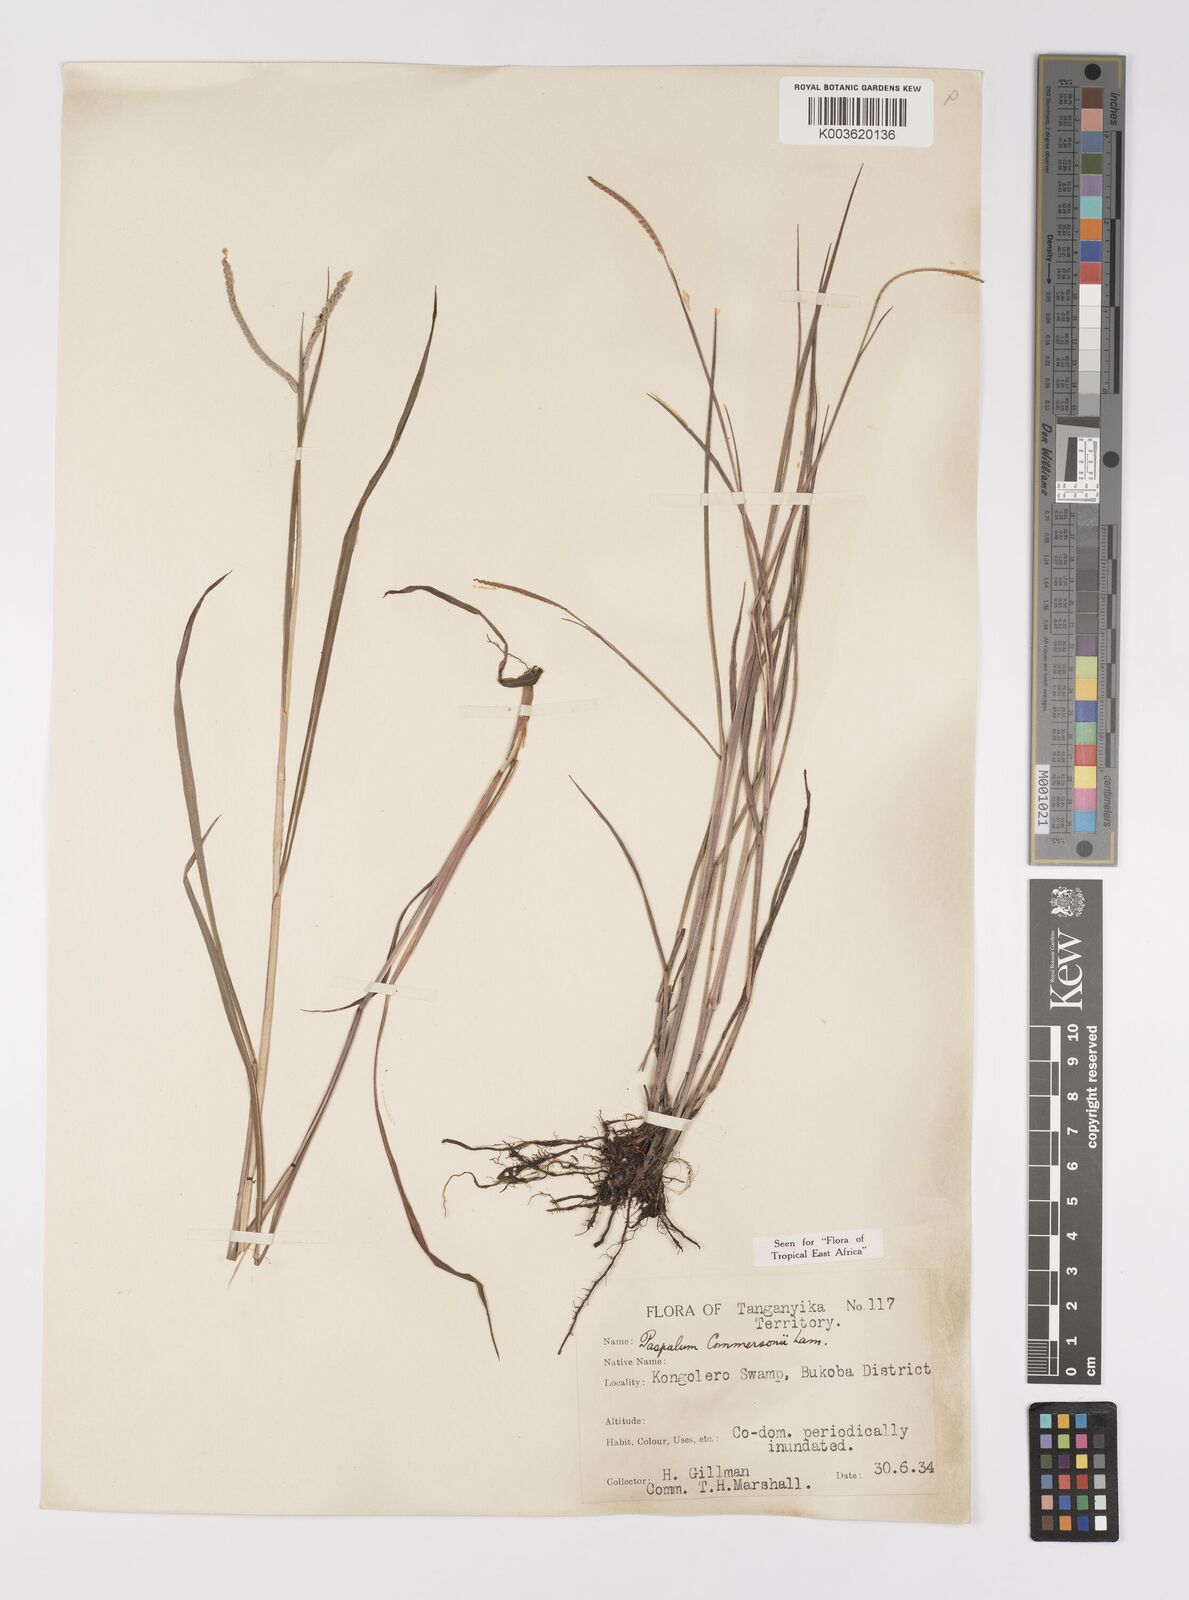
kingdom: Plantae
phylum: Tracheophyta
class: Liliopsida
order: Poales
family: Poaceae
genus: Paspalum
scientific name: Paspalum scrobiculatum
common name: Kodo millet
